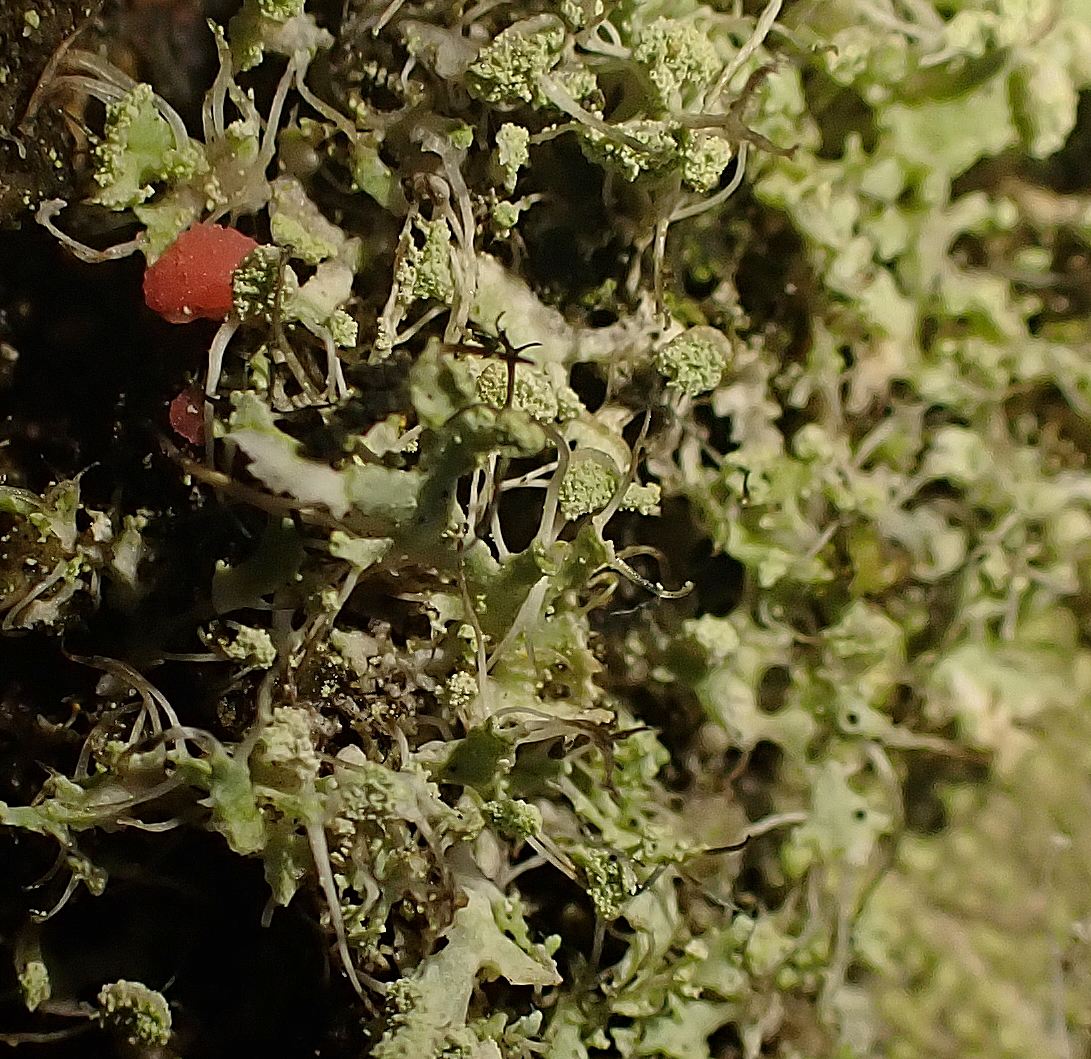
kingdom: Fungi
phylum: Ascomycota
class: Sordariomycetes
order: Hypocreales
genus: Illosporiopsis
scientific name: Illosporiopsis christiansenii
